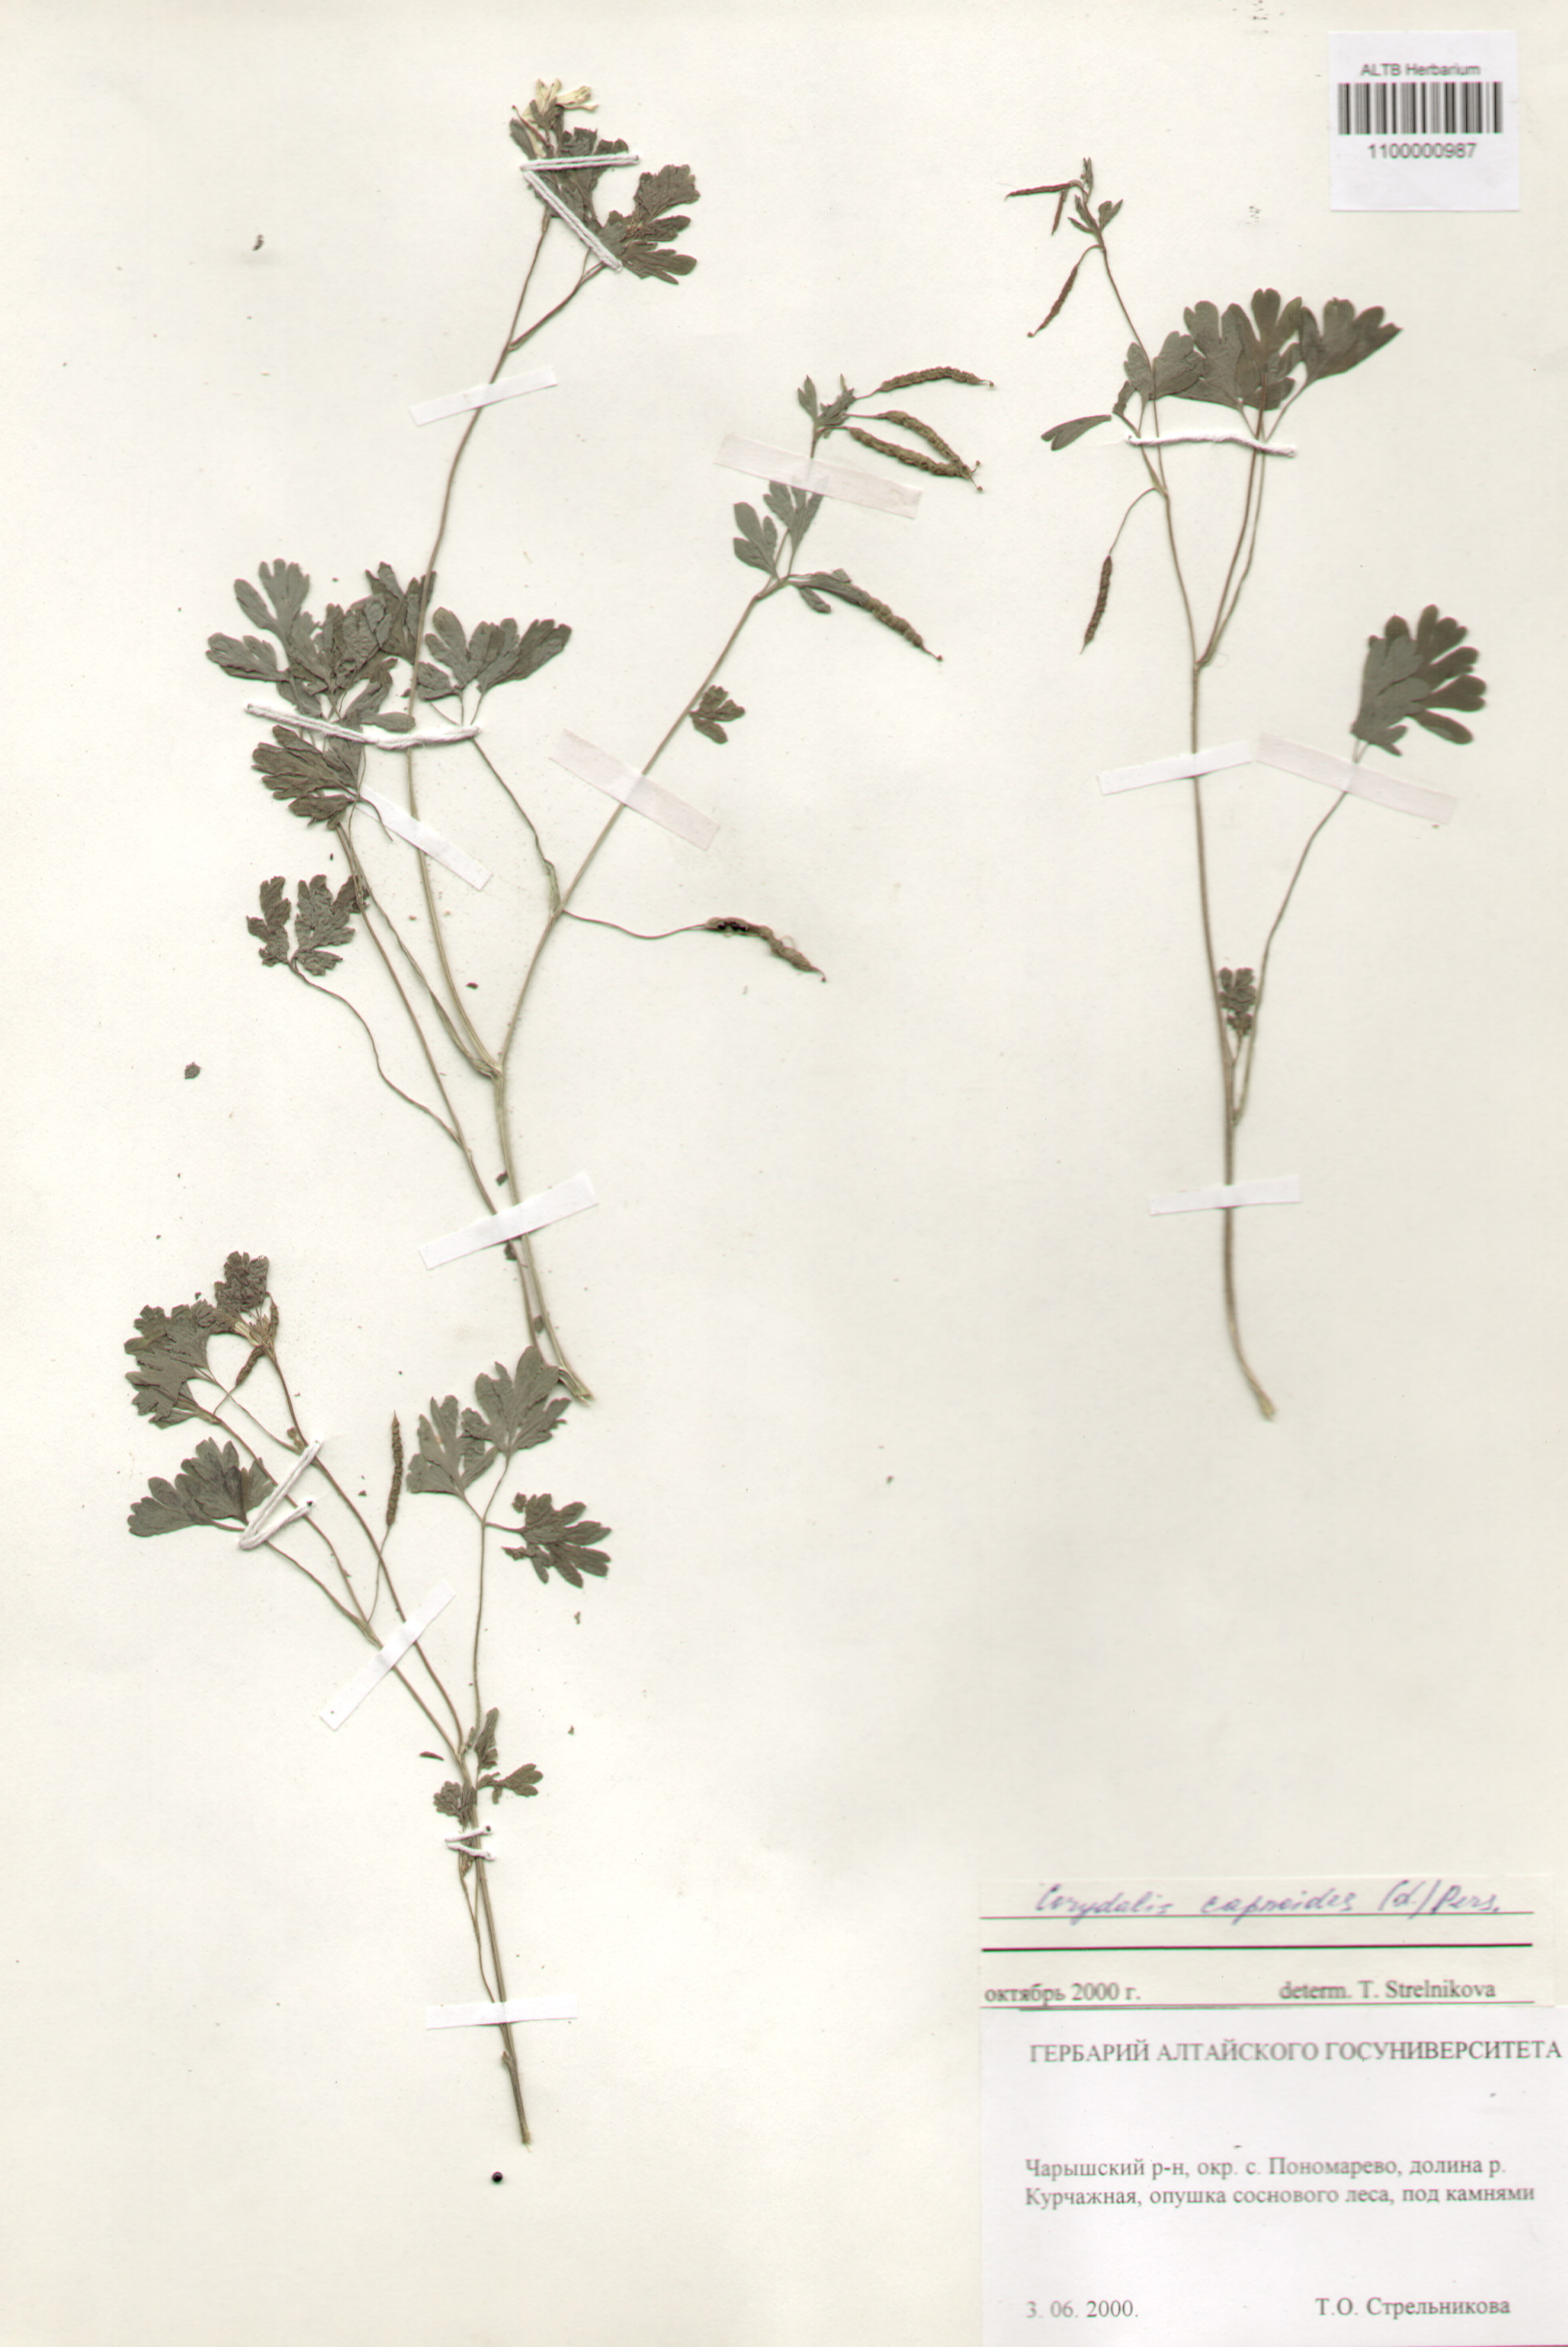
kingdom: Plantae
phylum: Tracheophyta
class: Magnoliopsida
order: Ranunculales
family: Papaveraceae
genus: Corydalis
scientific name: Corydalis capnoides
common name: Beaked corydalis
